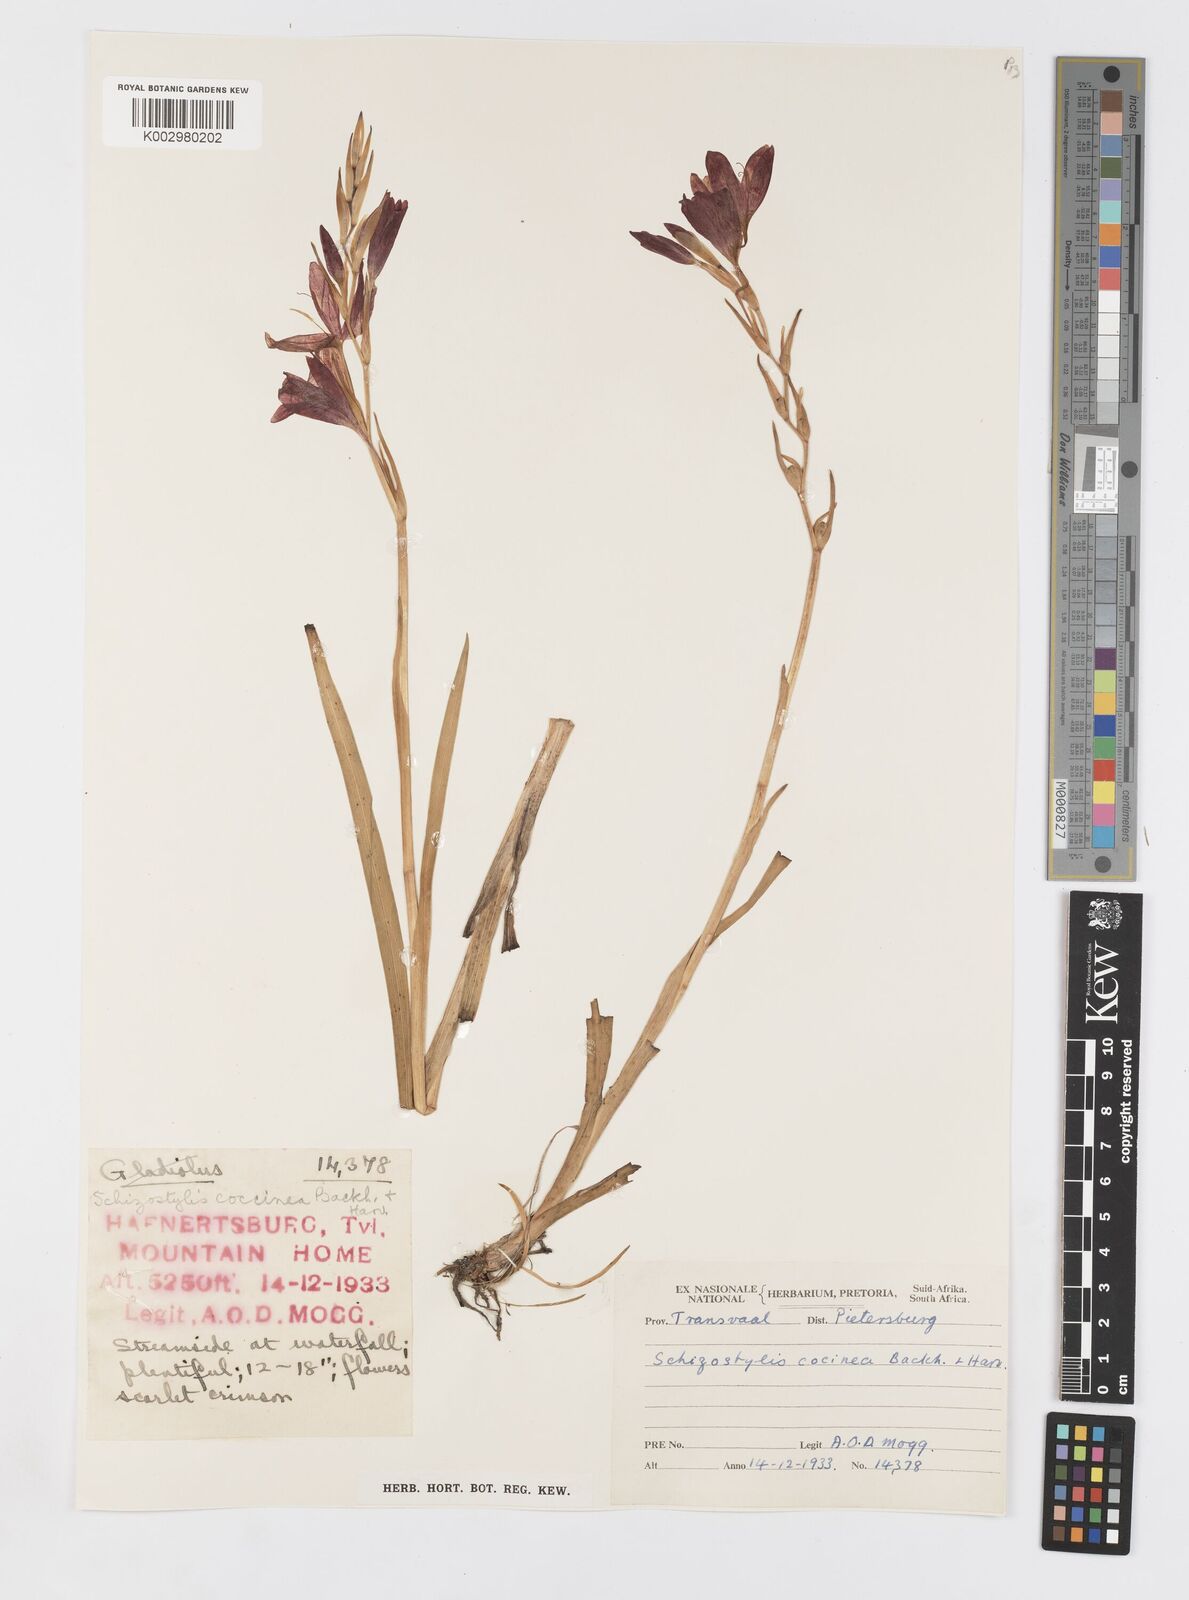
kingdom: Plantae
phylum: Tracheophyta
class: Liliopsida
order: Asparagales
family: Iridaceae
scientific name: Iridaceae
